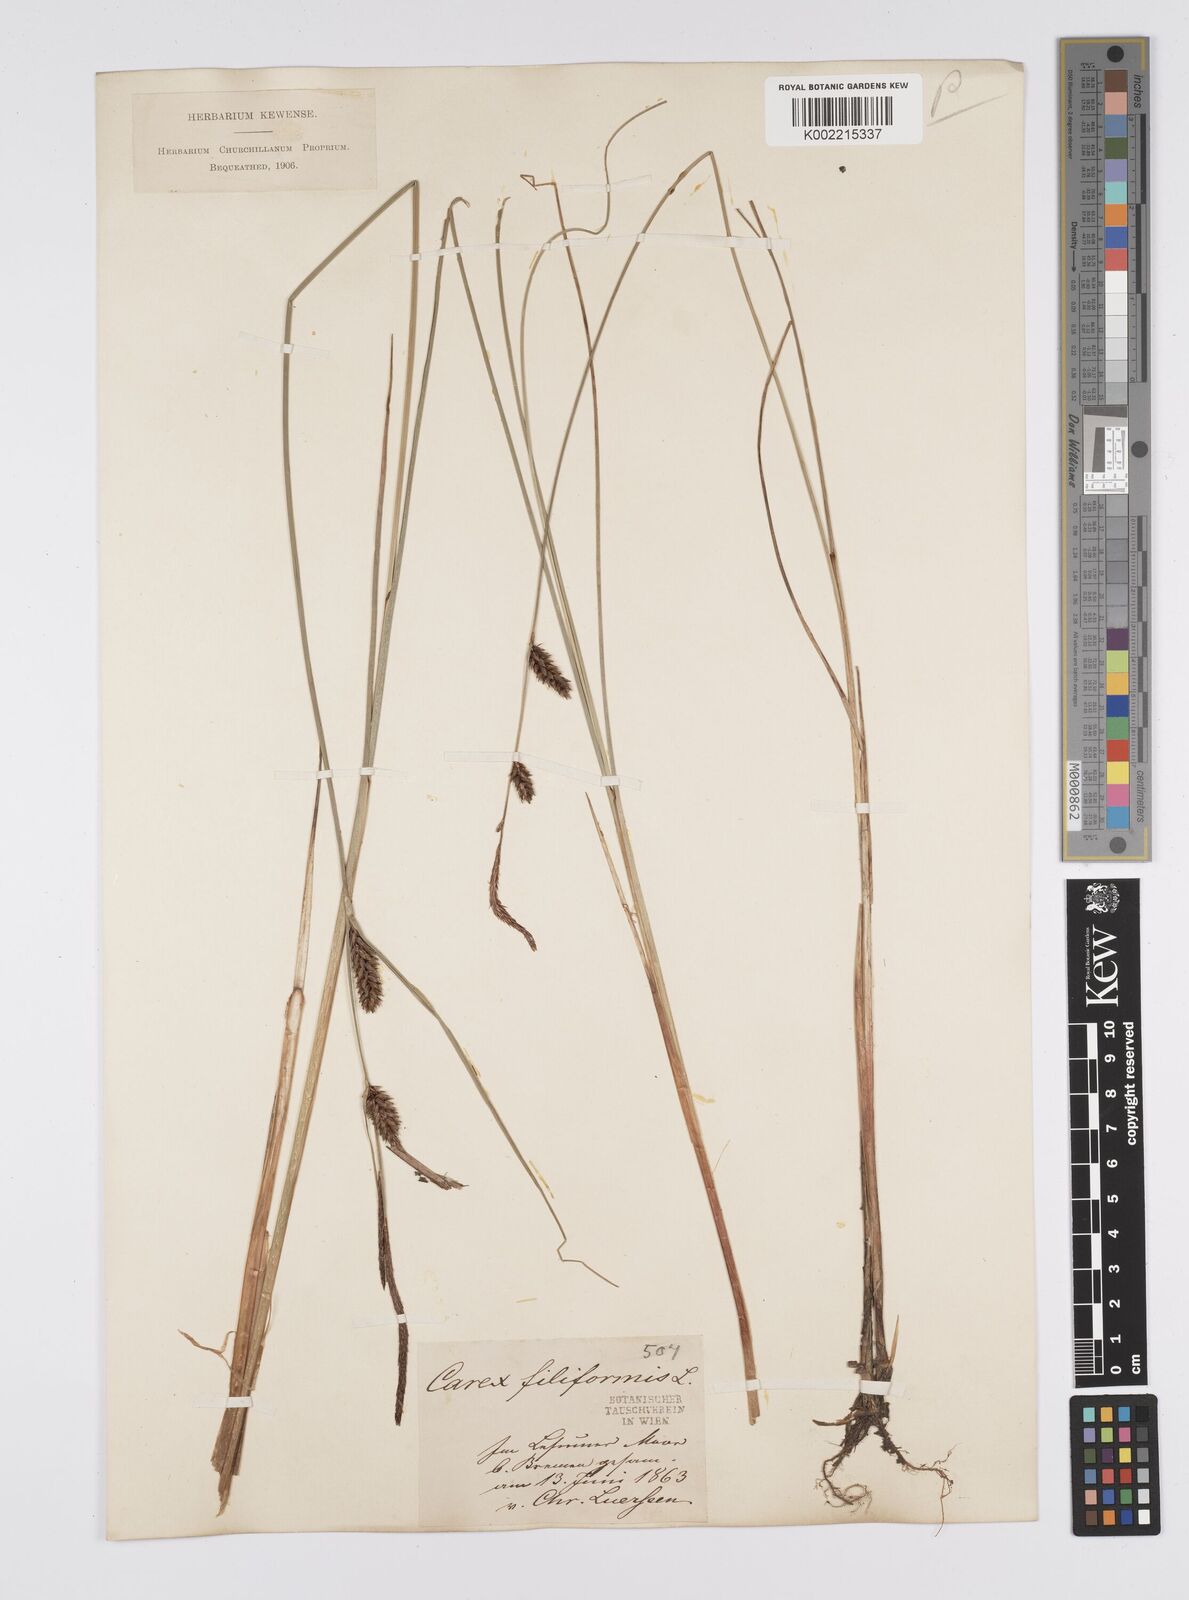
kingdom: Plantae
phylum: Tracheophyta
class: Liliopsida
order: Poales
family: Cyperaceae
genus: Carex
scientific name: Carex lasiocarpa
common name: Slender sedge
